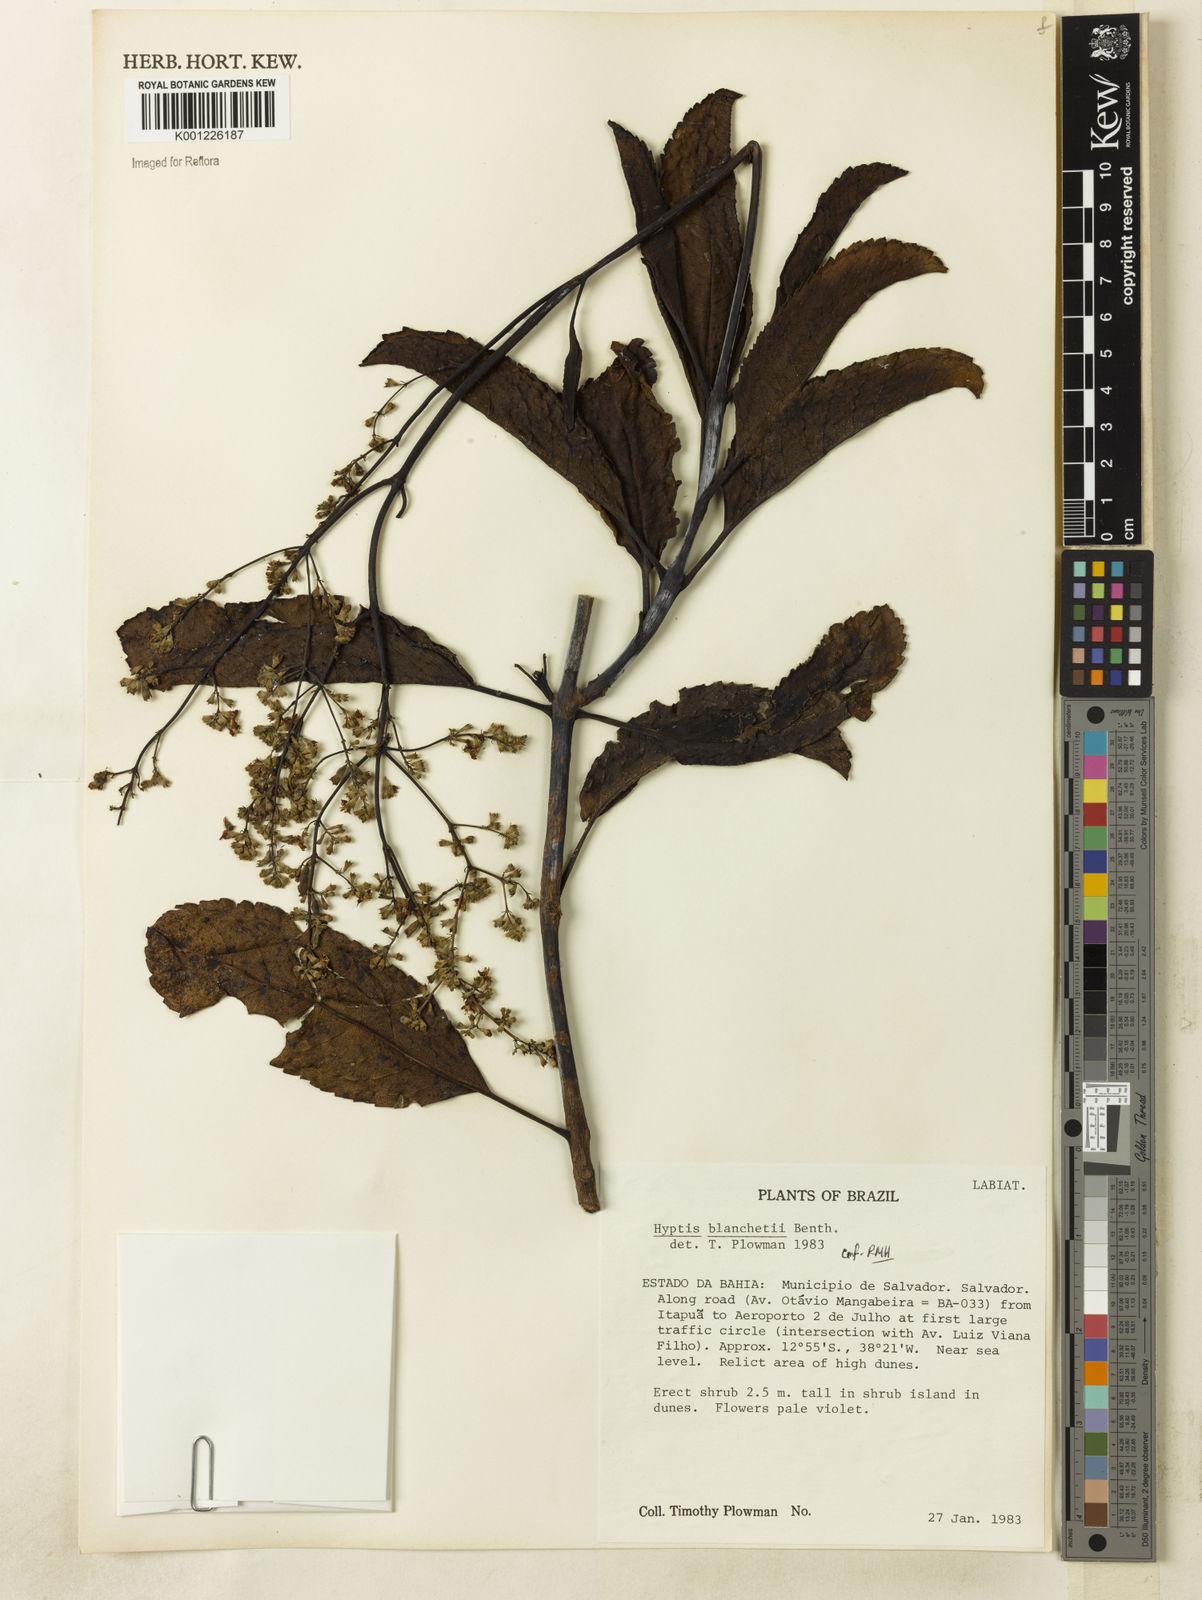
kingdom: Plantae
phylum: Tracheophyta
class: Magnoliopsida
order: Lamiales
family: Lamiaceae
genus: Eriope
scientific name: Eriope blanchetii
